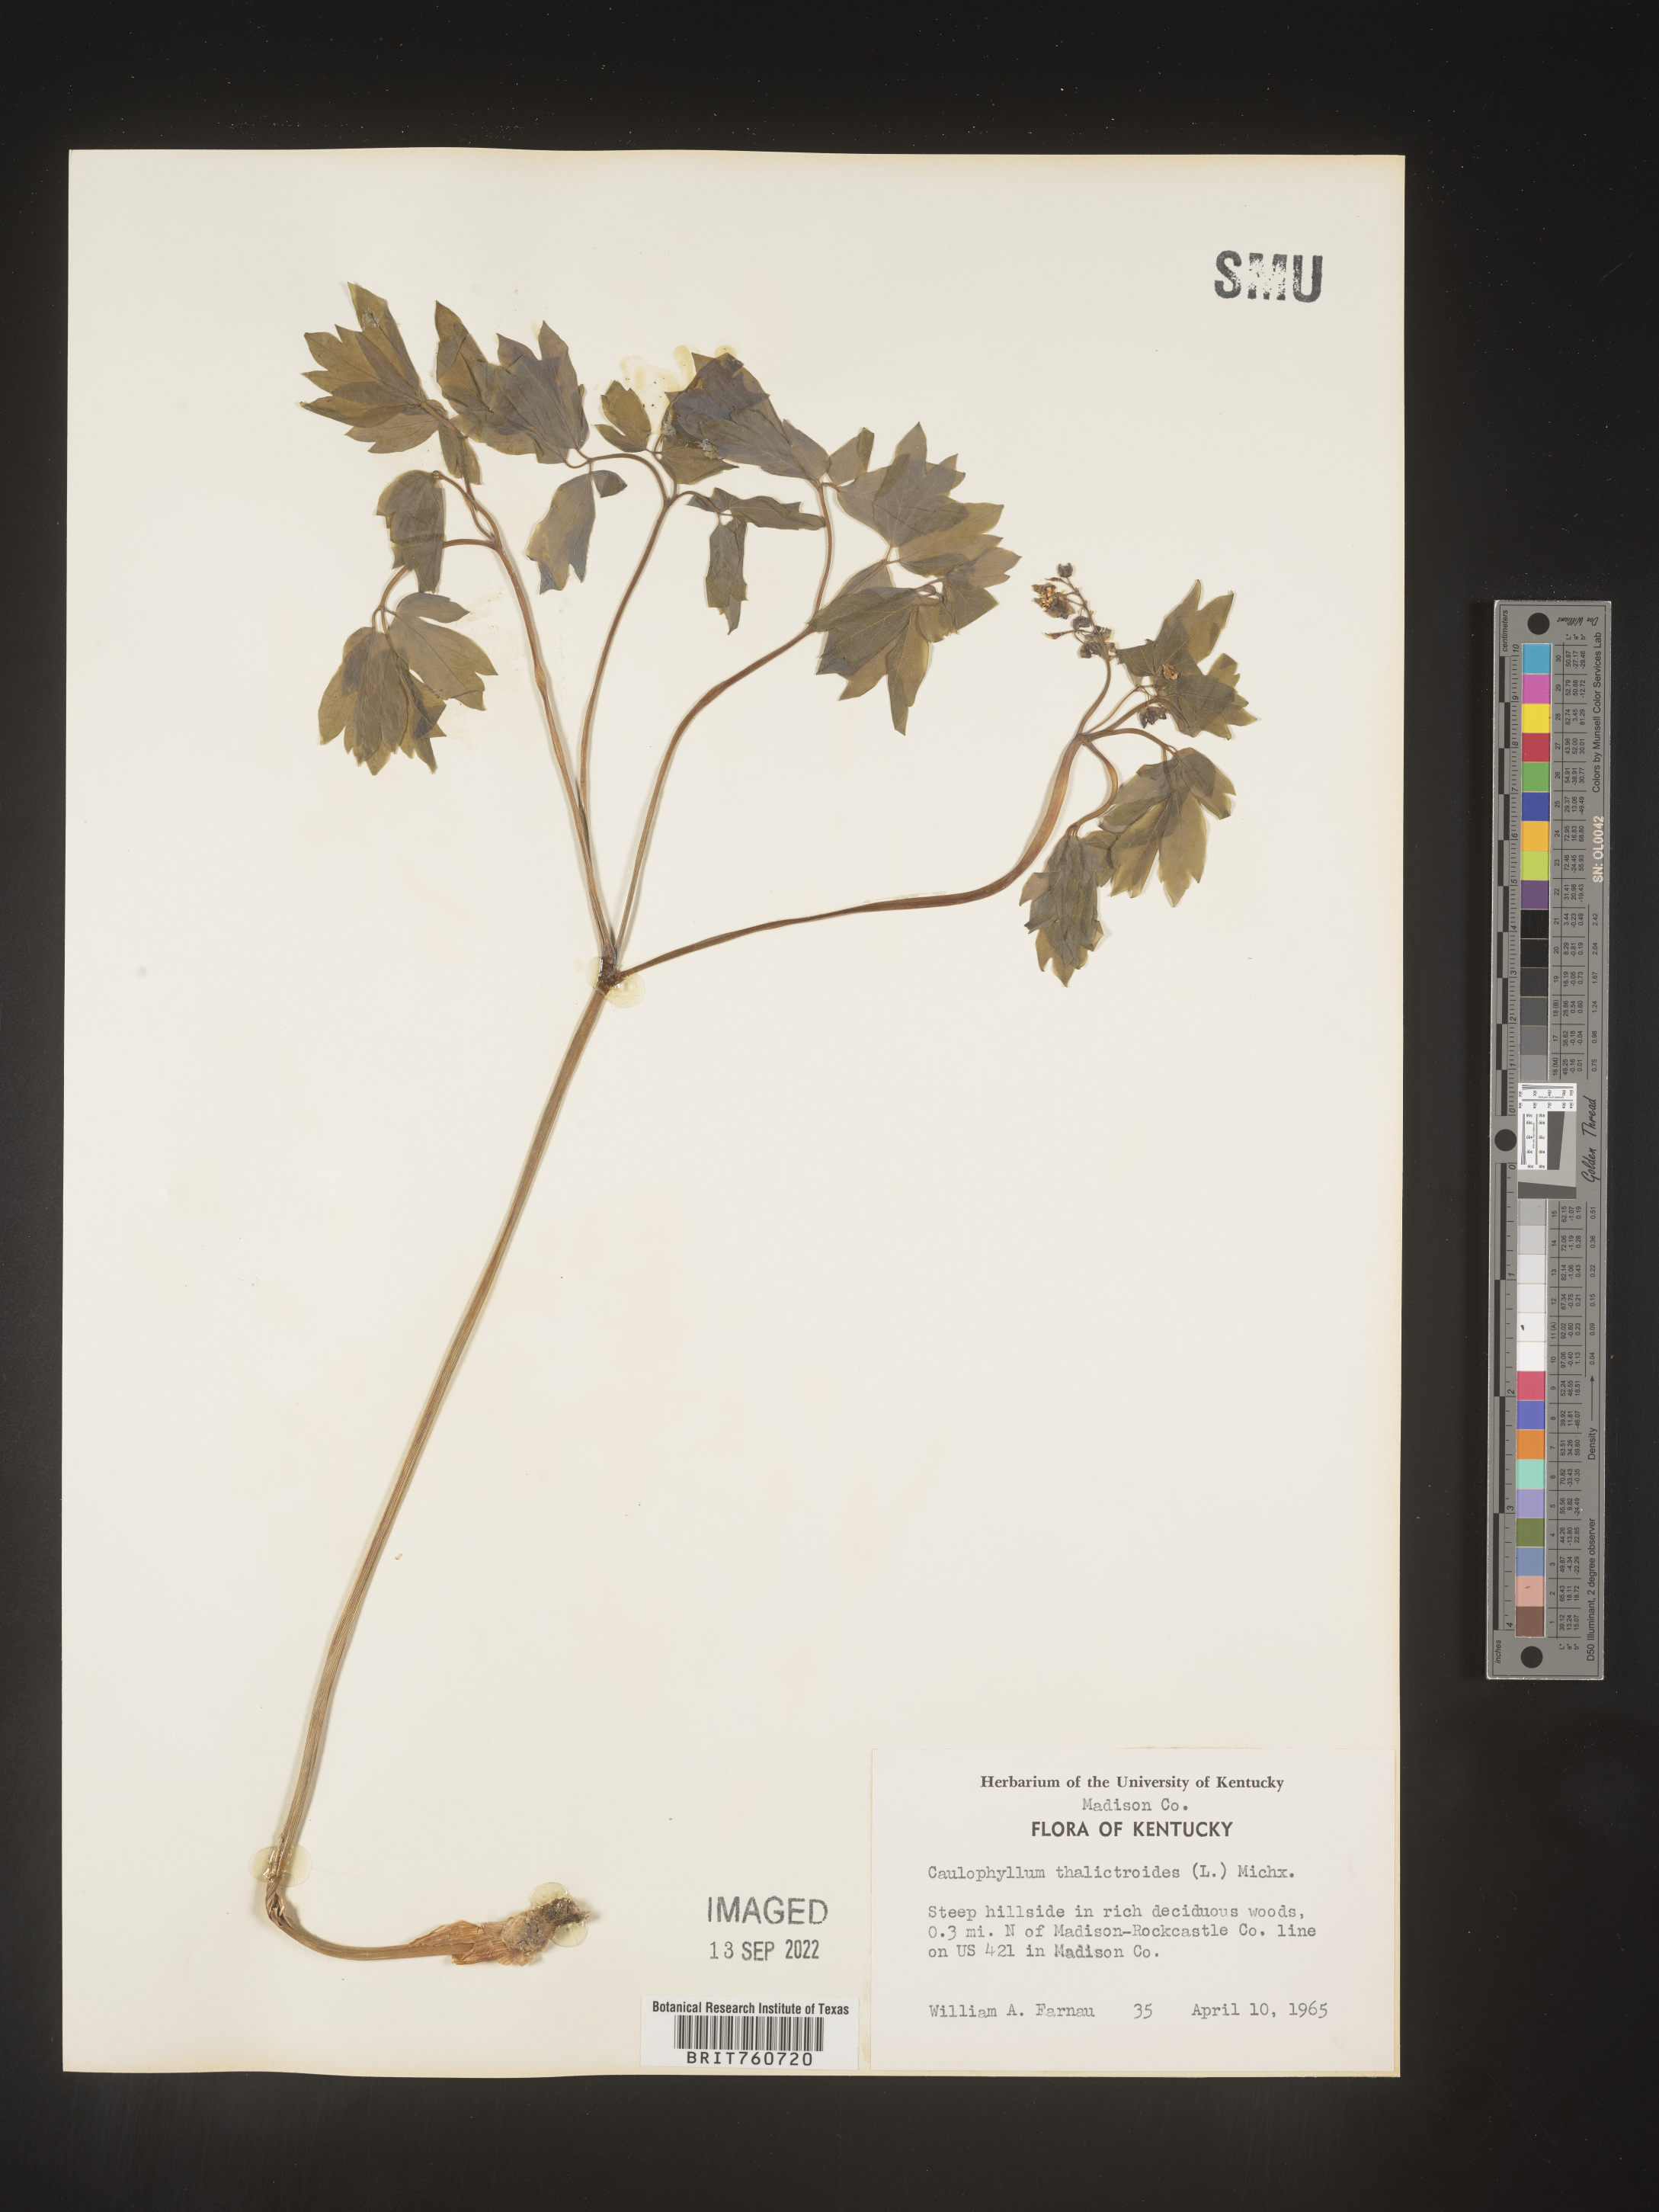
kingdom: Plantae
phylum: Tracheophyta
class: Magnoliopsida
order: Ranunculales
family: Berberidaceae
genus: Caulophyllum
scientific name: Caulophyllum thalictroides
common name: Blue cohosh
